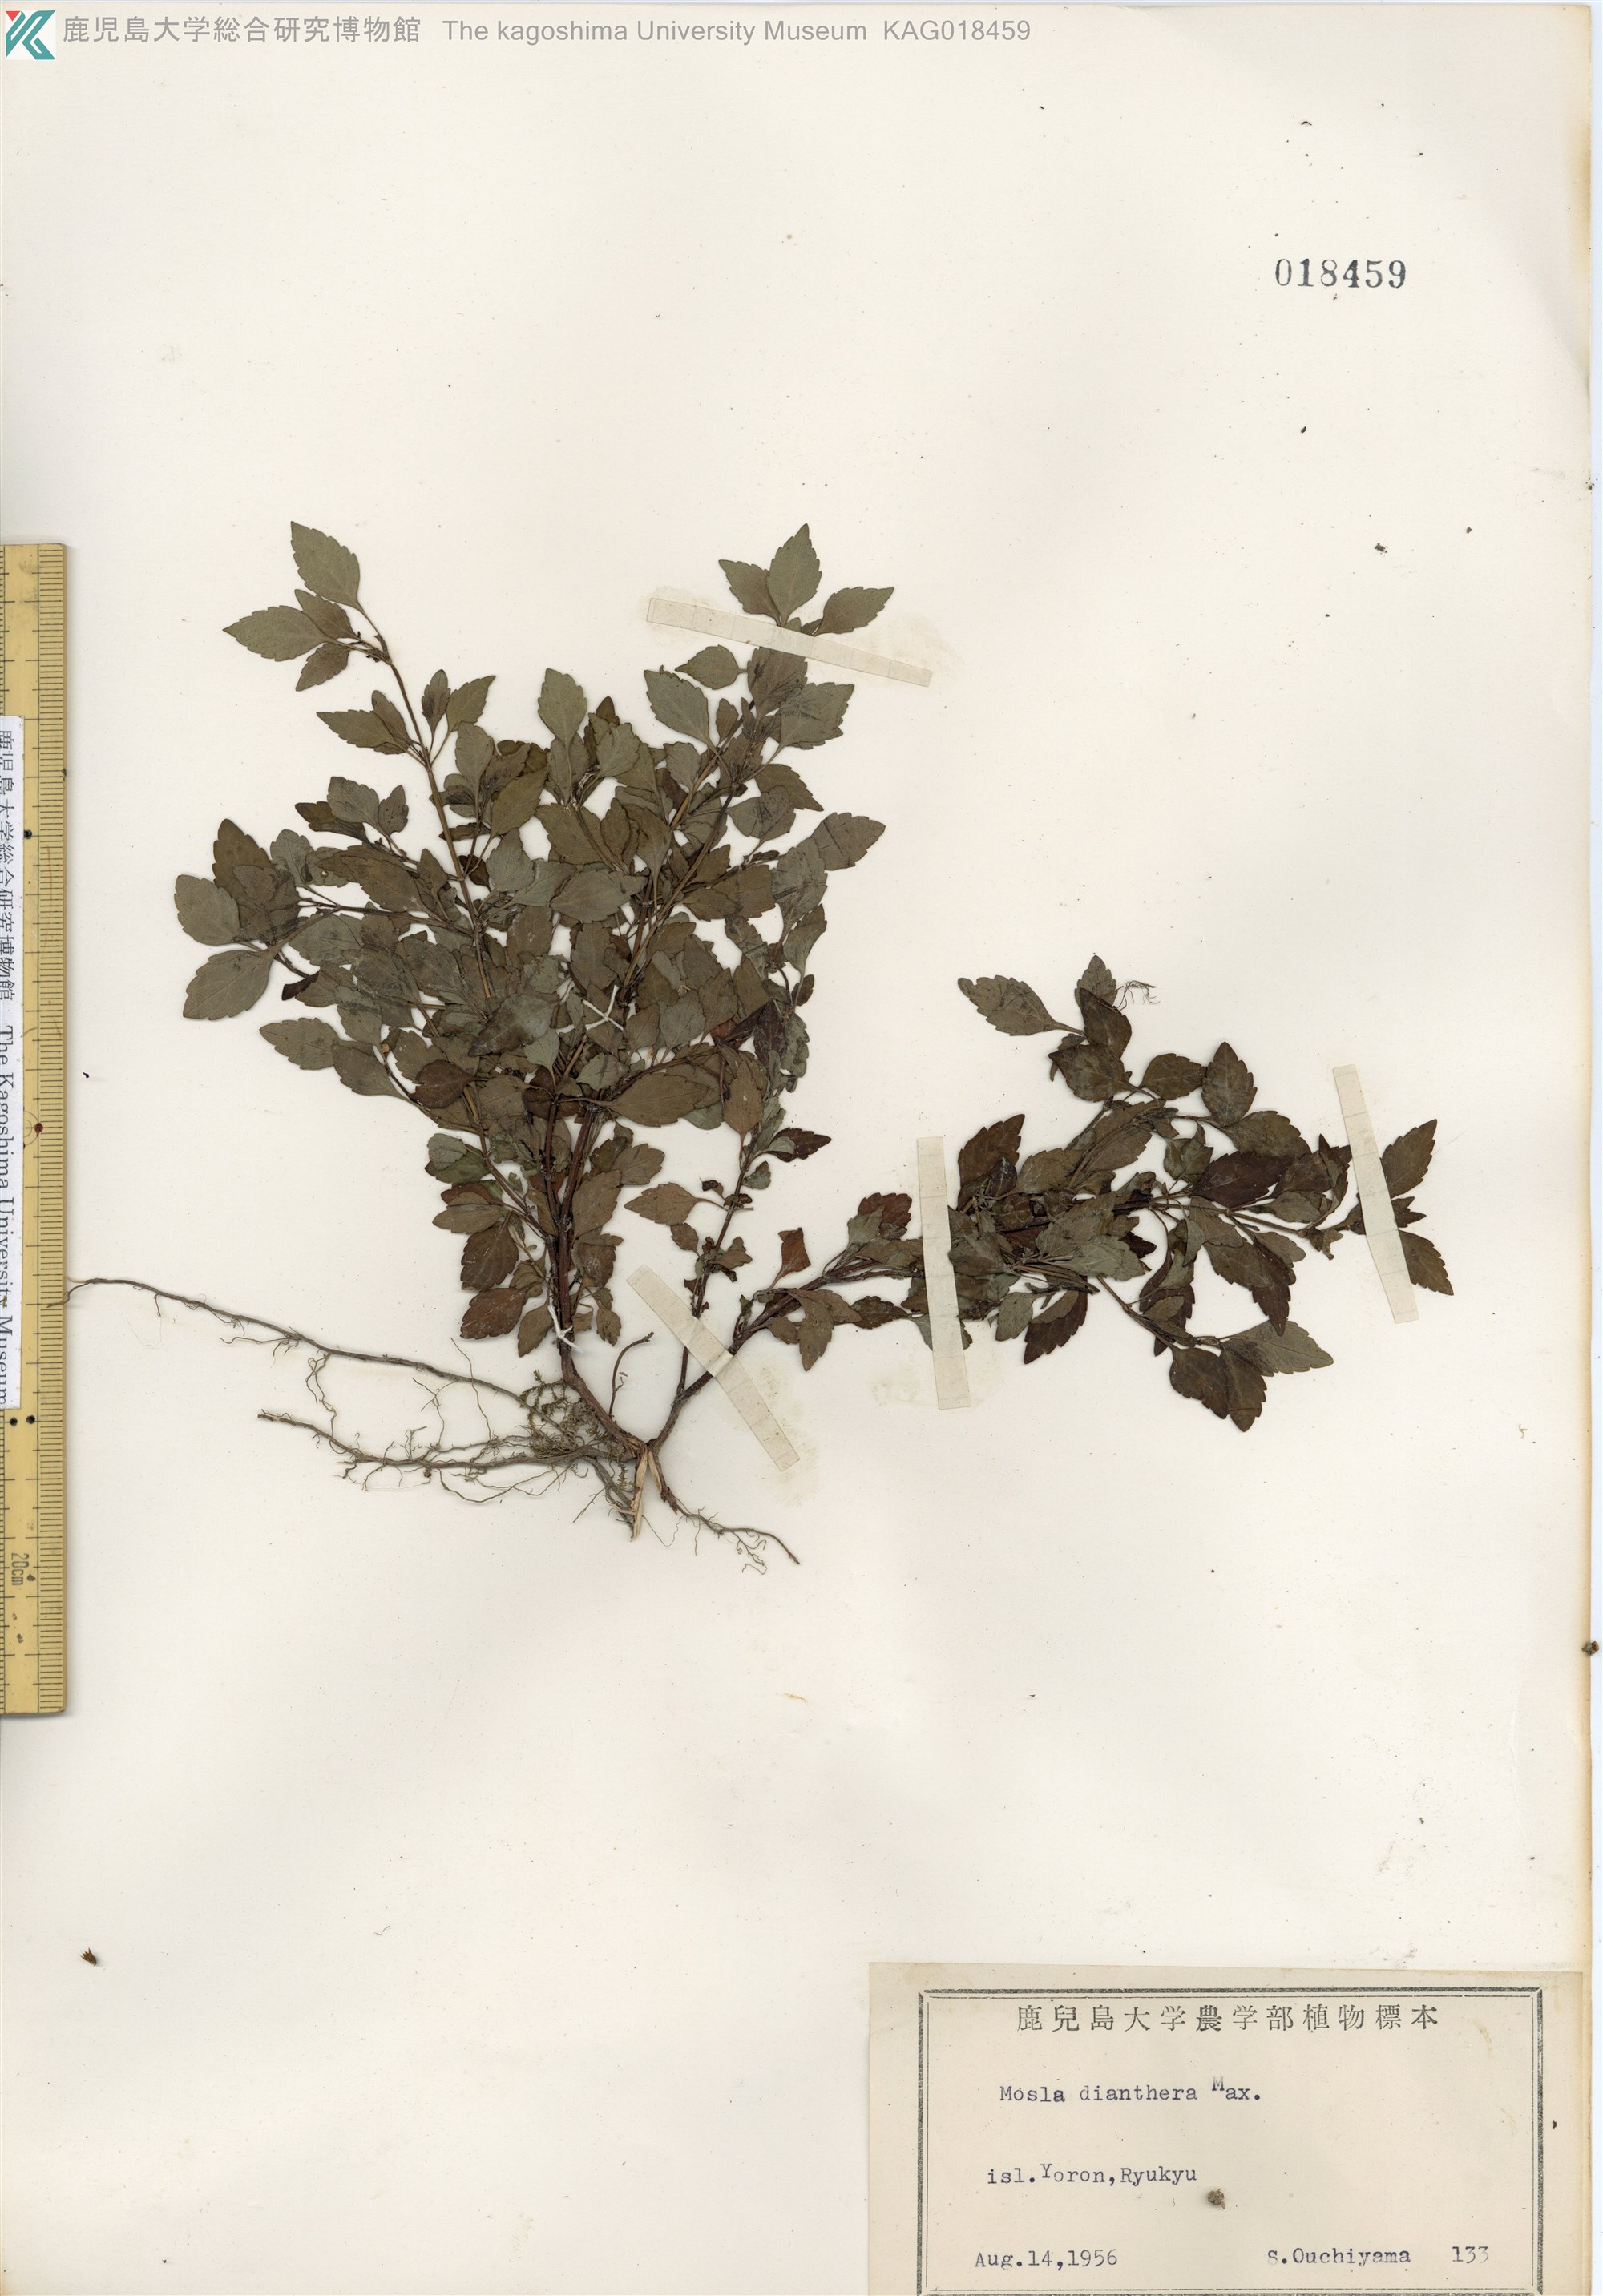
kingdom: Plantae
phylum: Tracheophyta
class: Magnoliopsida
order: Lamiales
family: Lamiaceae
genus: Mosla
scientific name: Mosla dianthera
